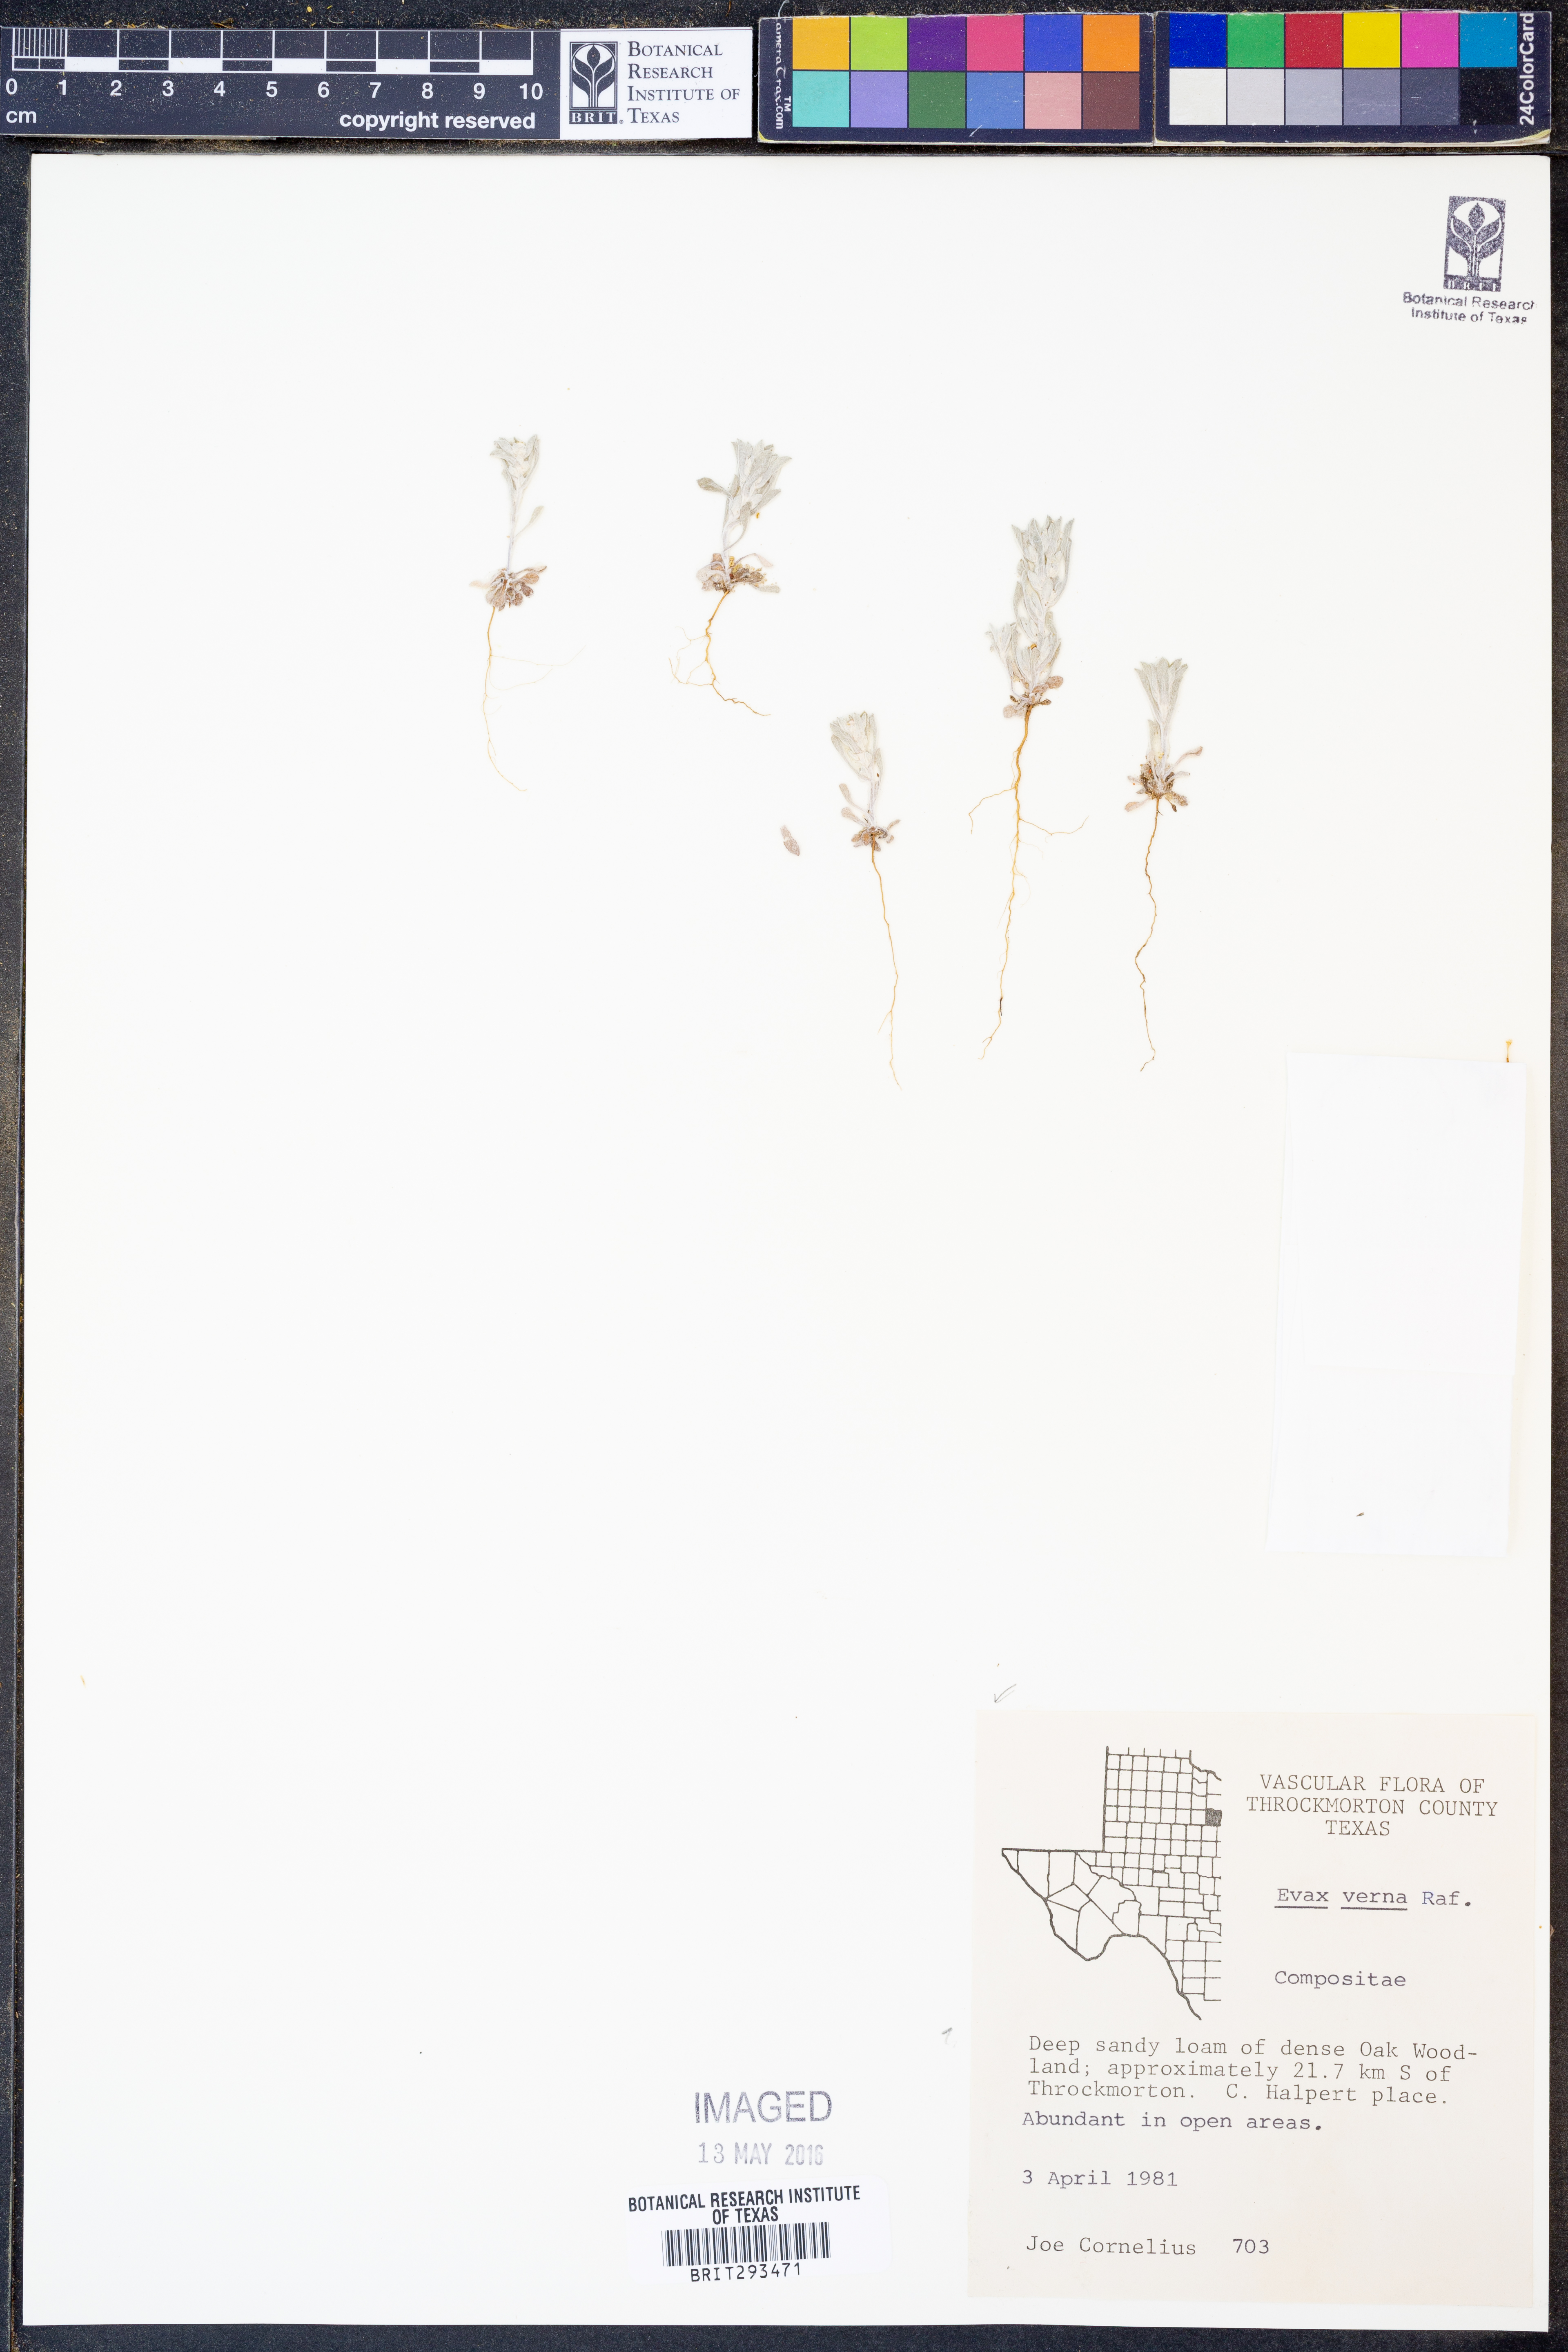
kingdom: Plantae
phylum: Tracheophyta
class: Magnoliopsida
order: Asterales
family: Asteraceae
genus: Diaperia
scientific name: Diaperia verna
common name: Many-stem rabbit-tobacco
